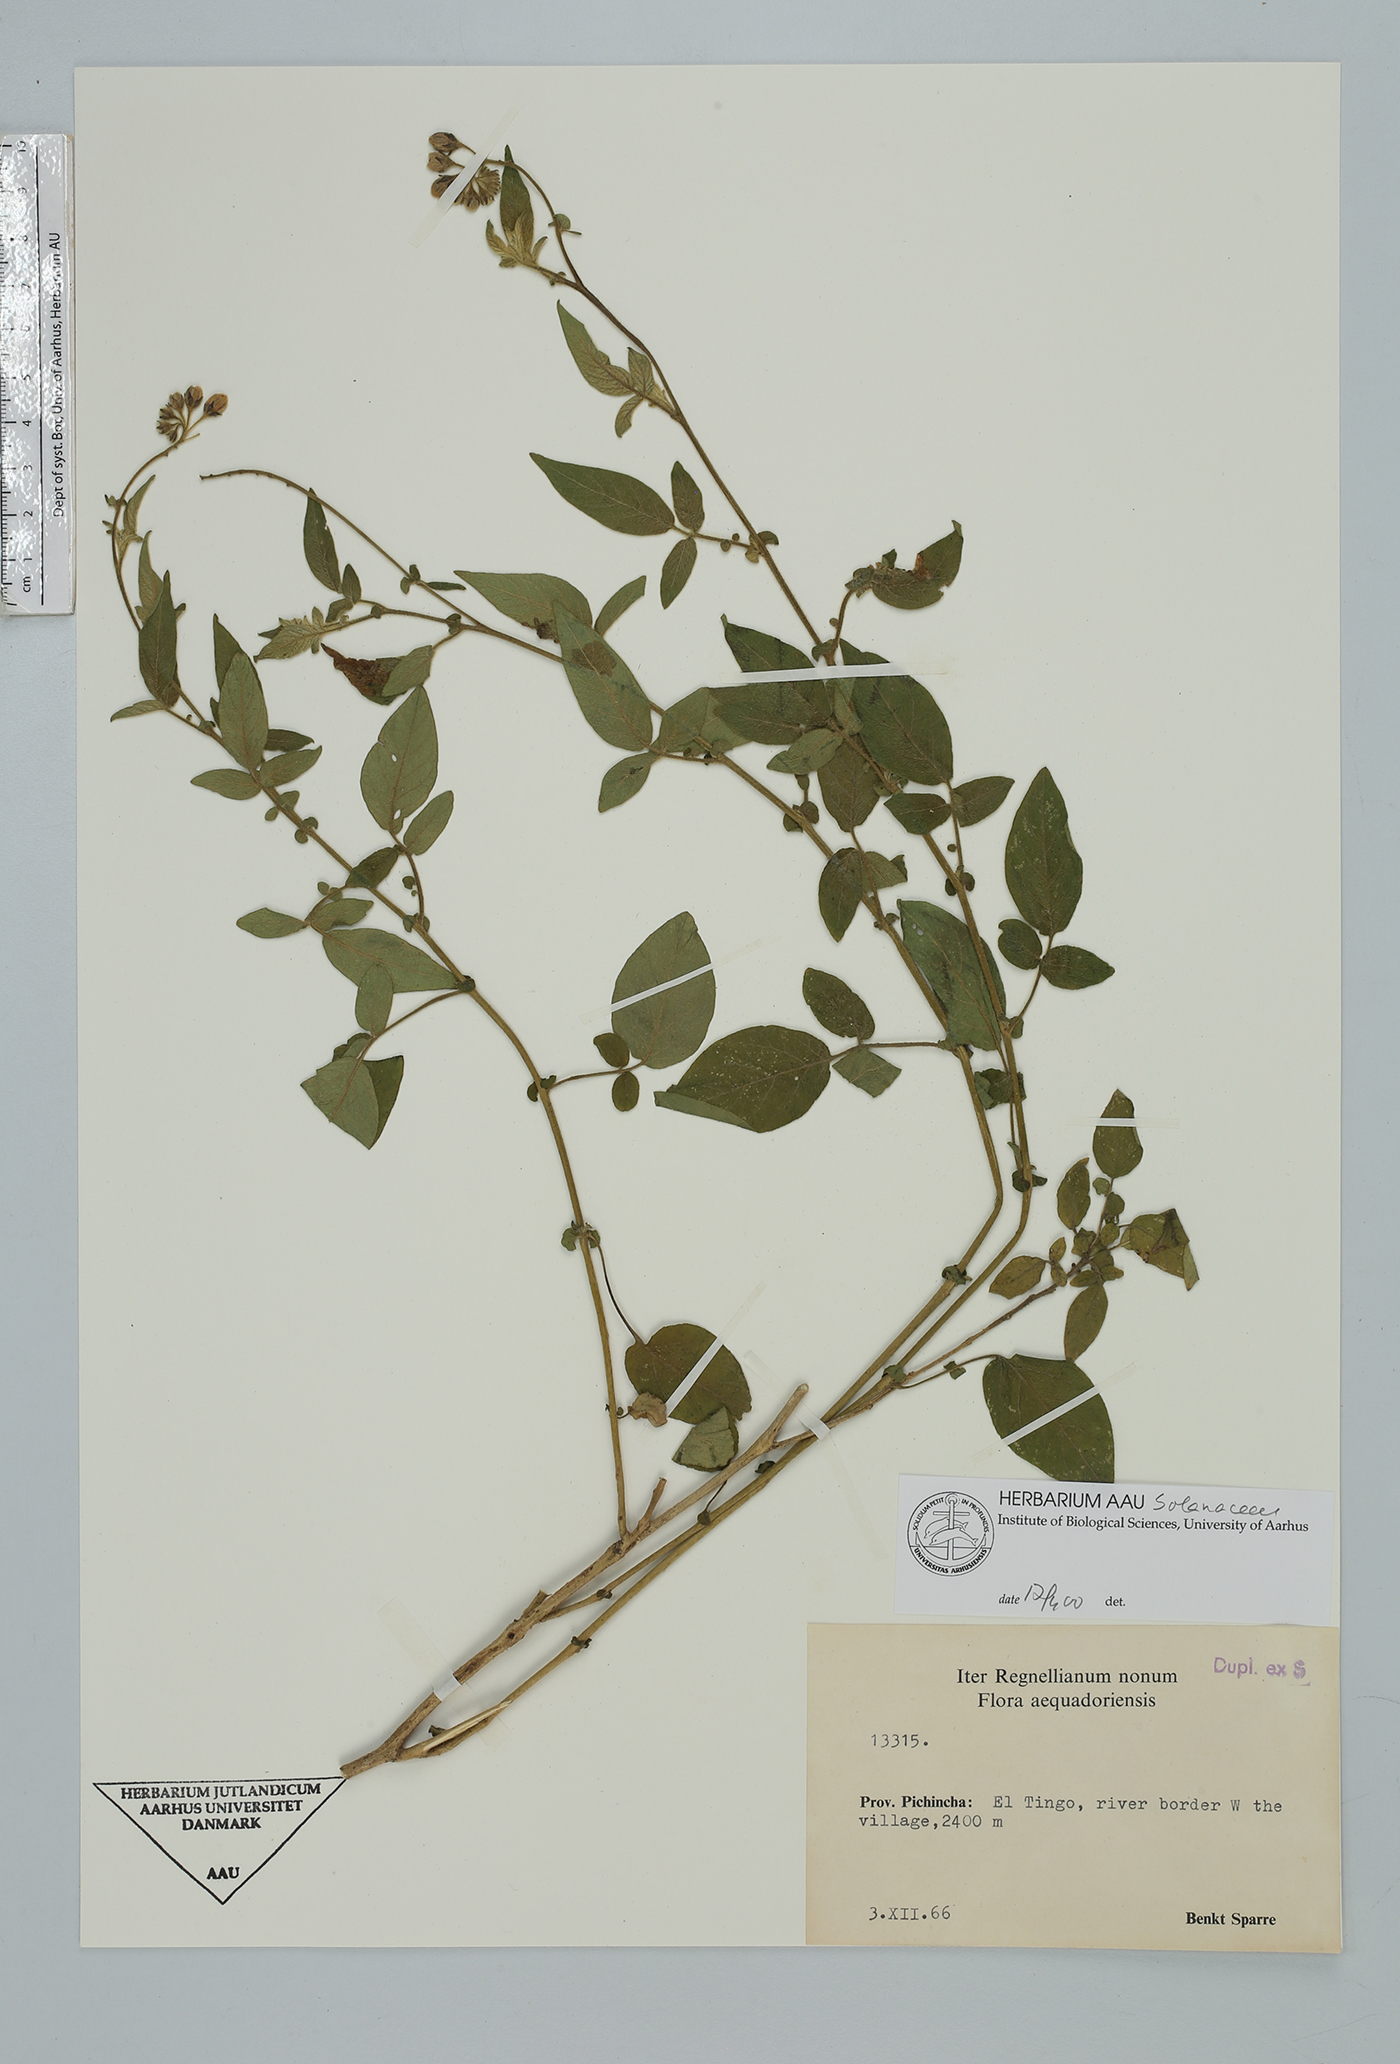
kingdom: Plantae
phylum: Tracheophyta
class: Magnoliopsida
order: Solanales
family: Solanaceae
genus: Solanum
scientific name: Solanum
